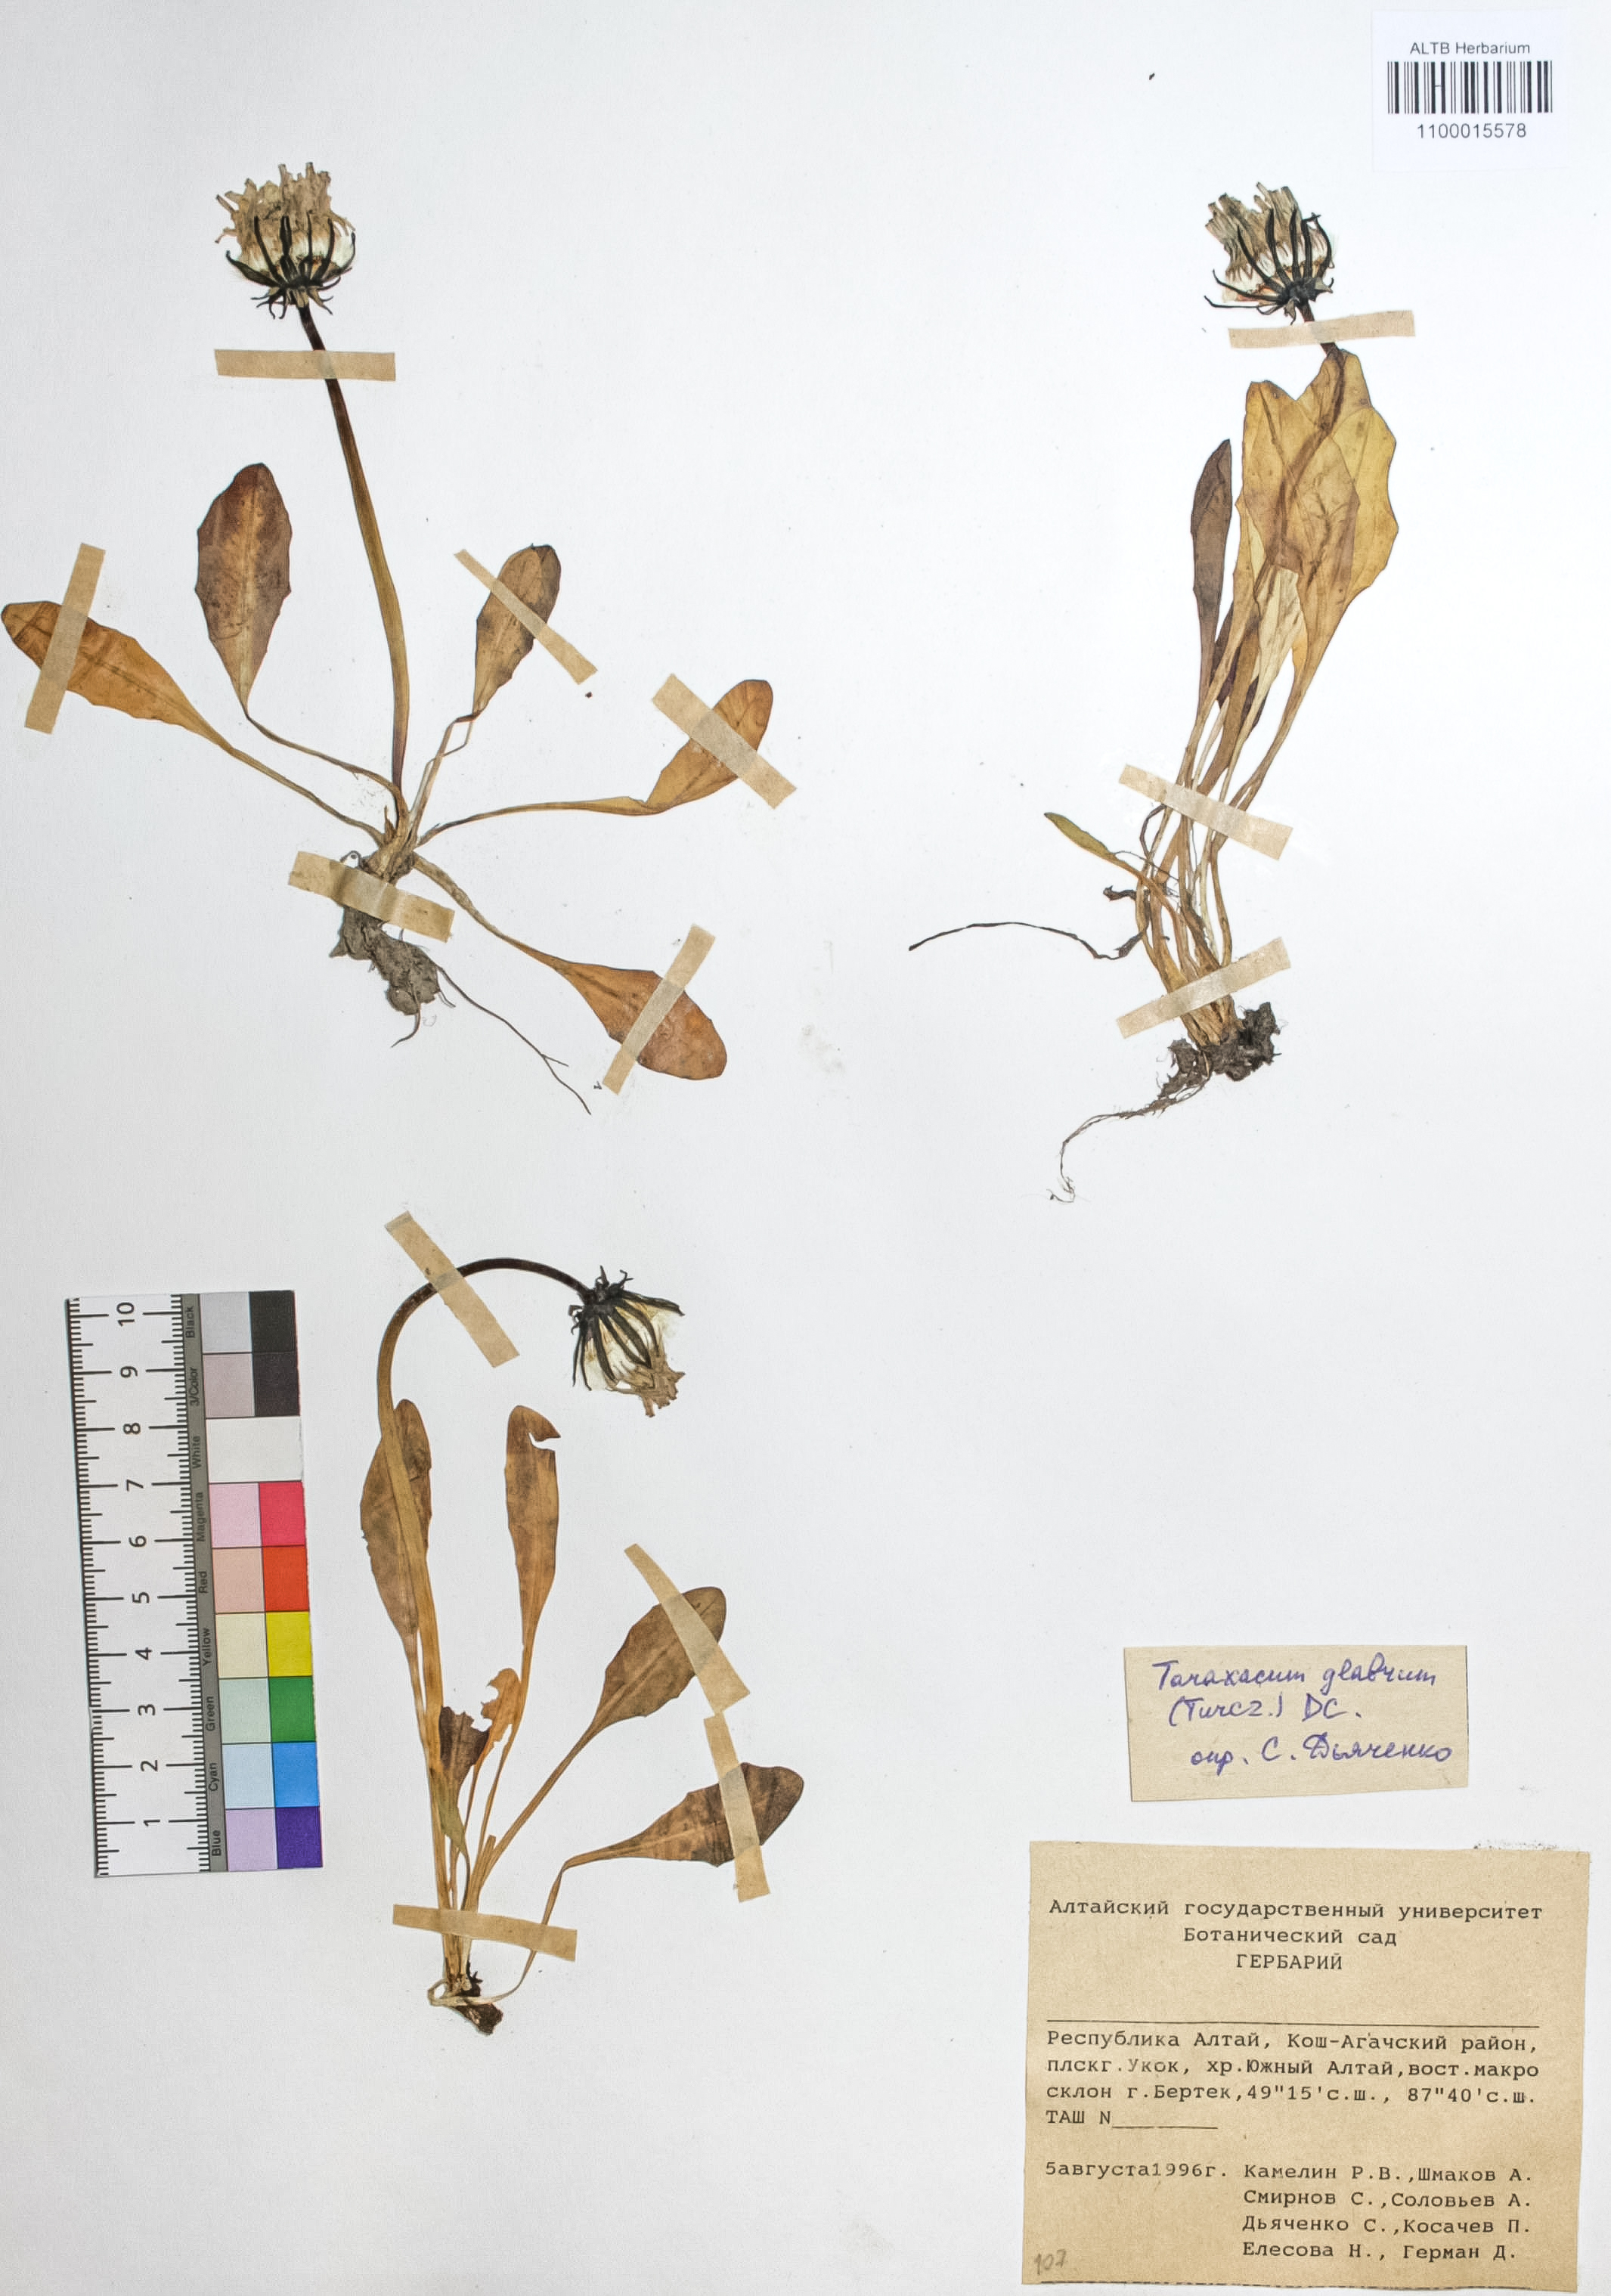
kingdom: Plantae
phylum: Tracheophyta
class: Magnoliopsida
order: Asterales
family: Asteraceae
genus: Taraxacum
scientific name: Taraxacum glabrum
